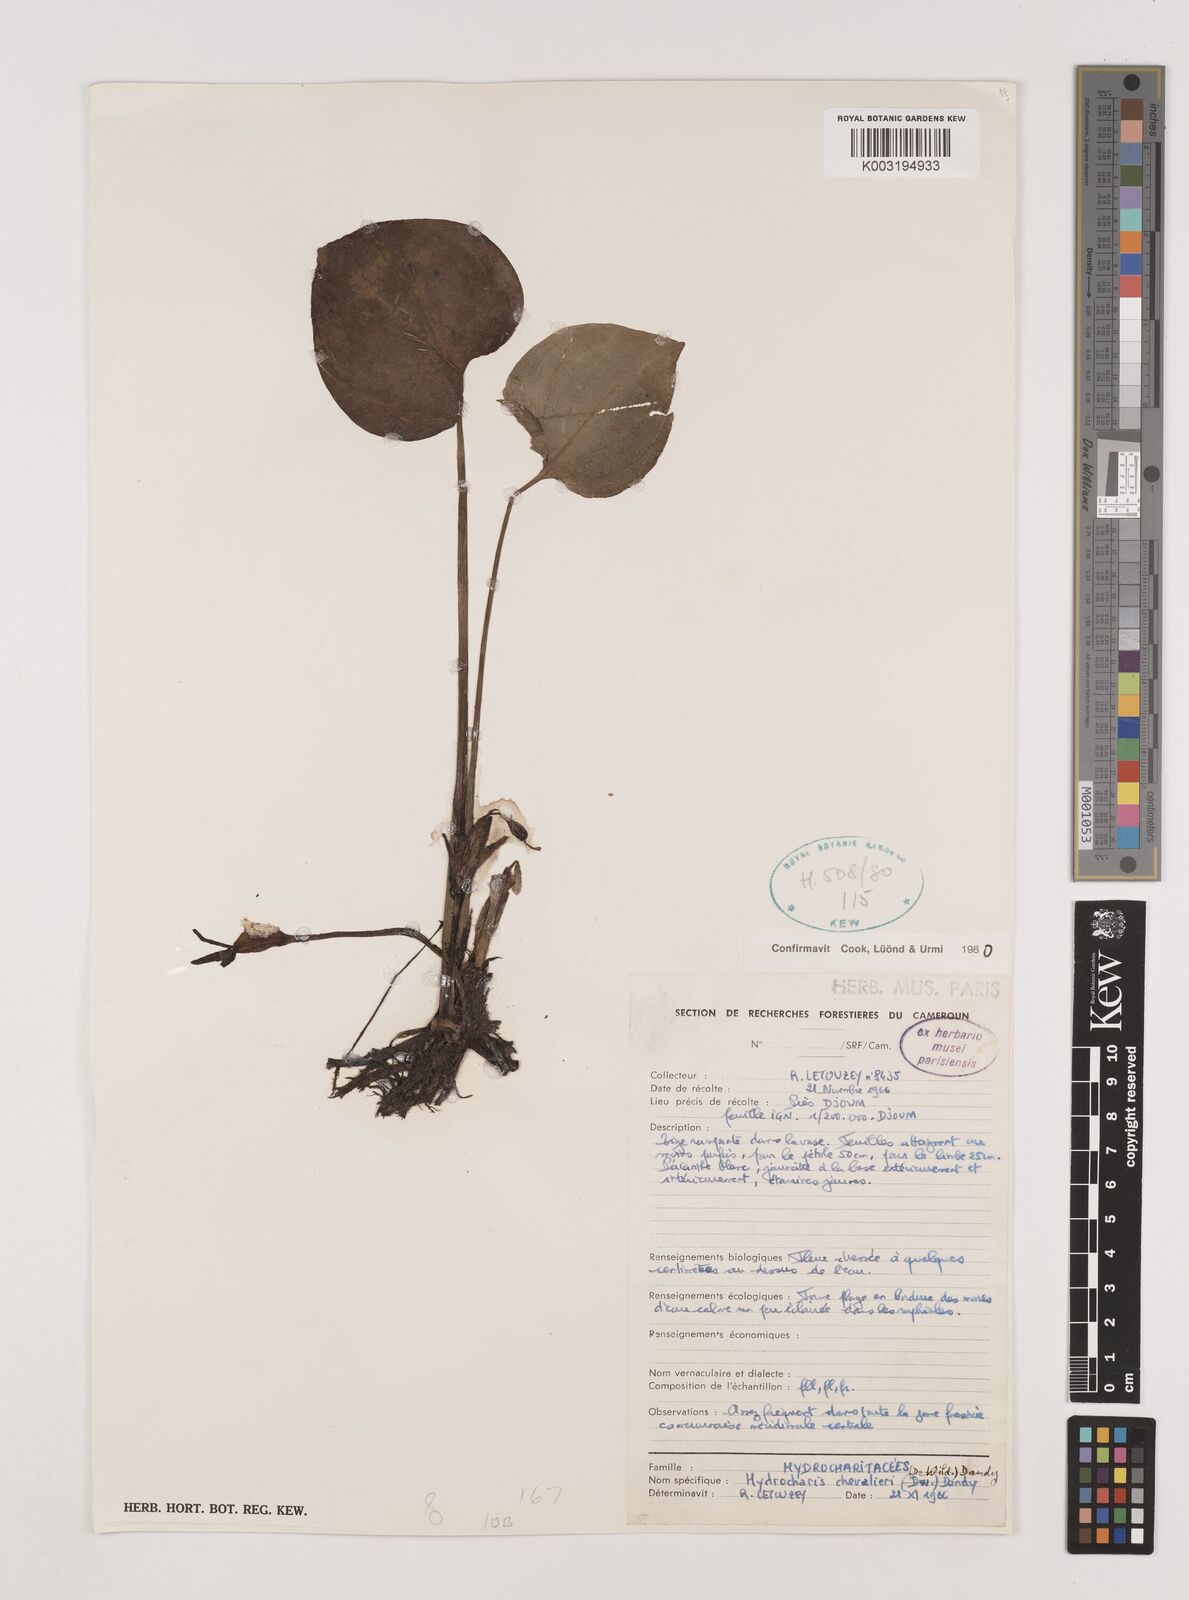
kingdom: Plantae
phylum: Tracheophyta
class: Liliopsida
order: Alismatales
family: Hydrocharitaceae
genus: Hydrocharis
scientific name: Hydrocharis chevalieri
